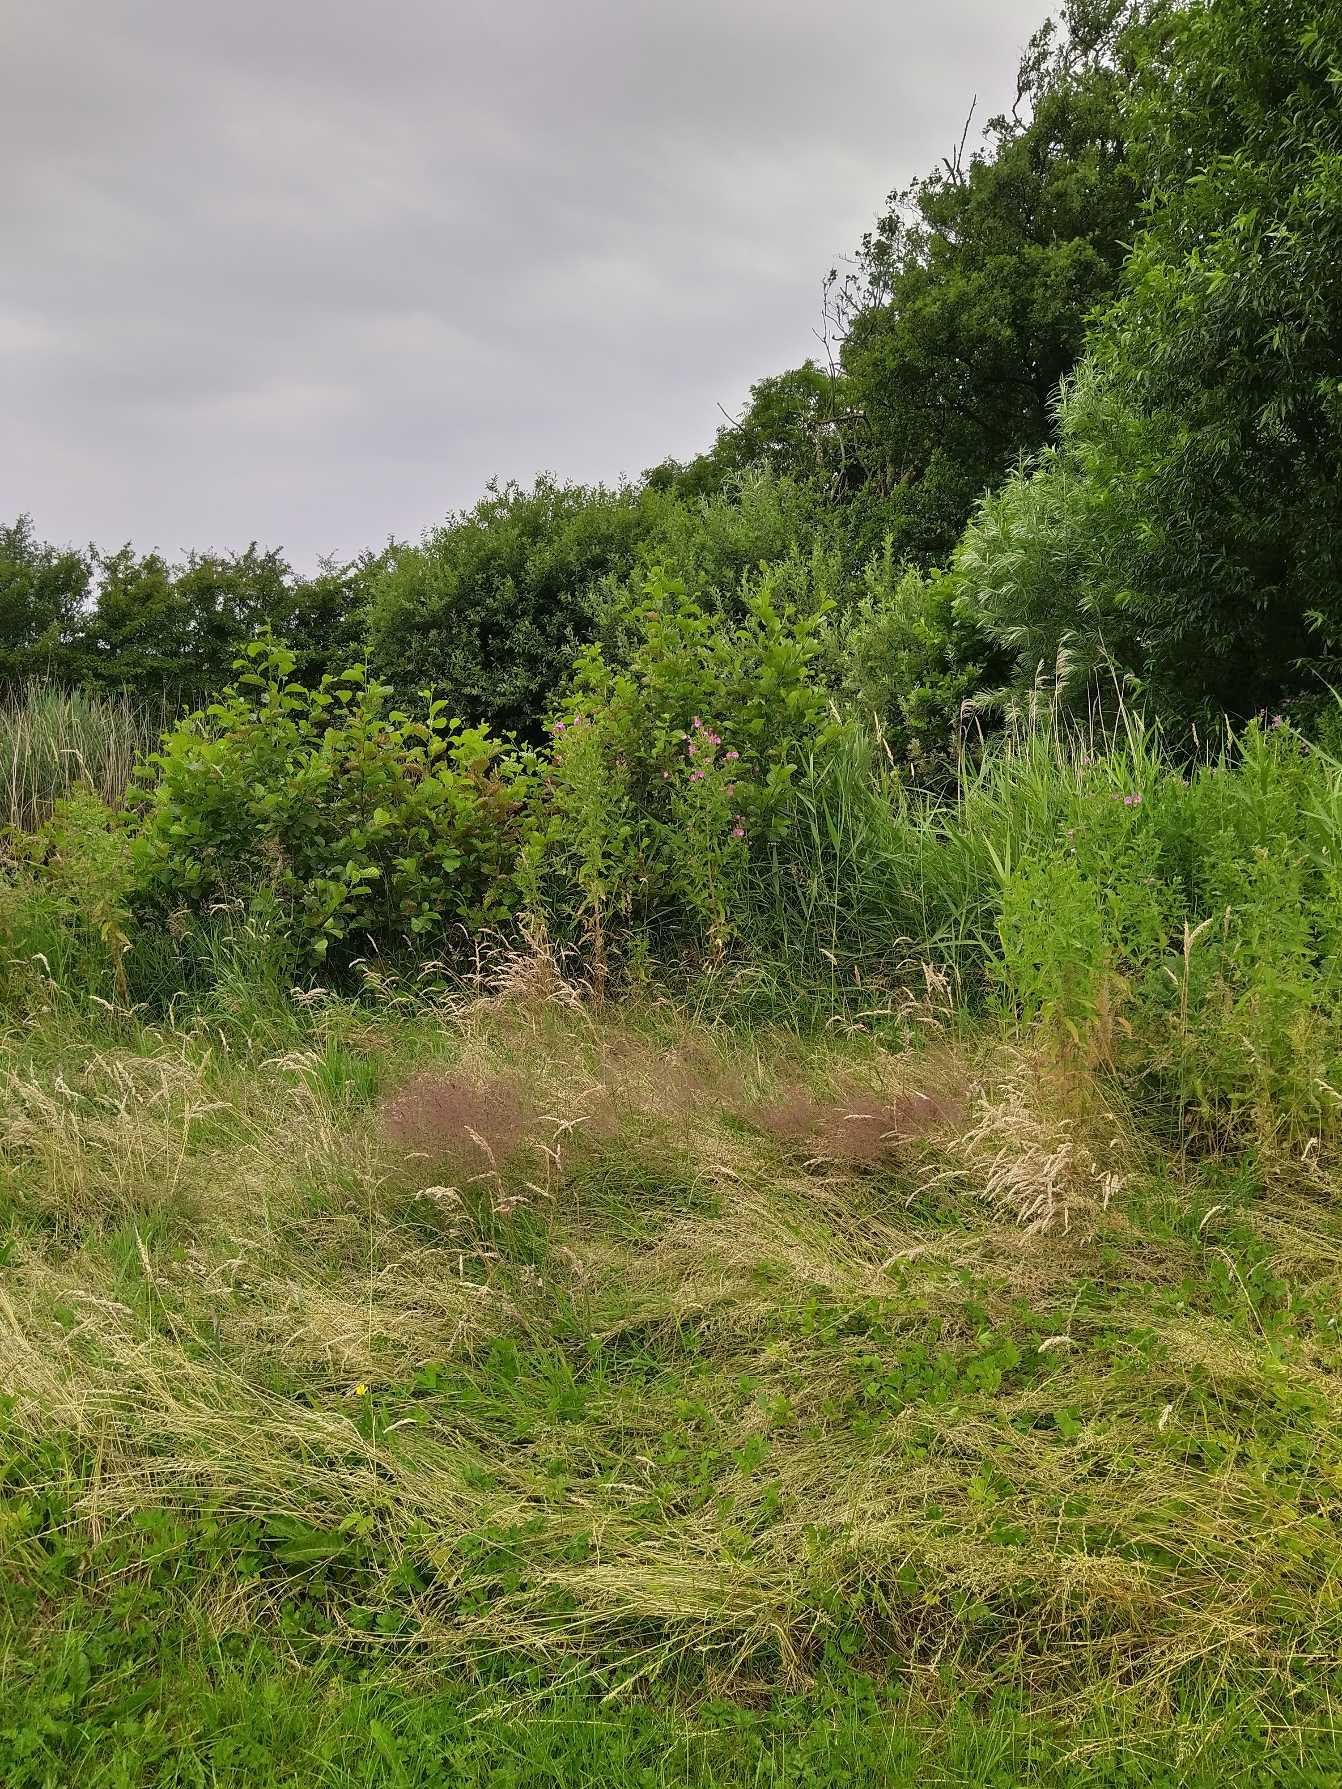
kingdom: Plantae
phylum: Tracheophyta
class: Magnoliopsida
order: Myrtales
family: Onagraceae
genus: Epilobium
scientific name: Epilobium hirsutum
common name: Lådden dueurt
